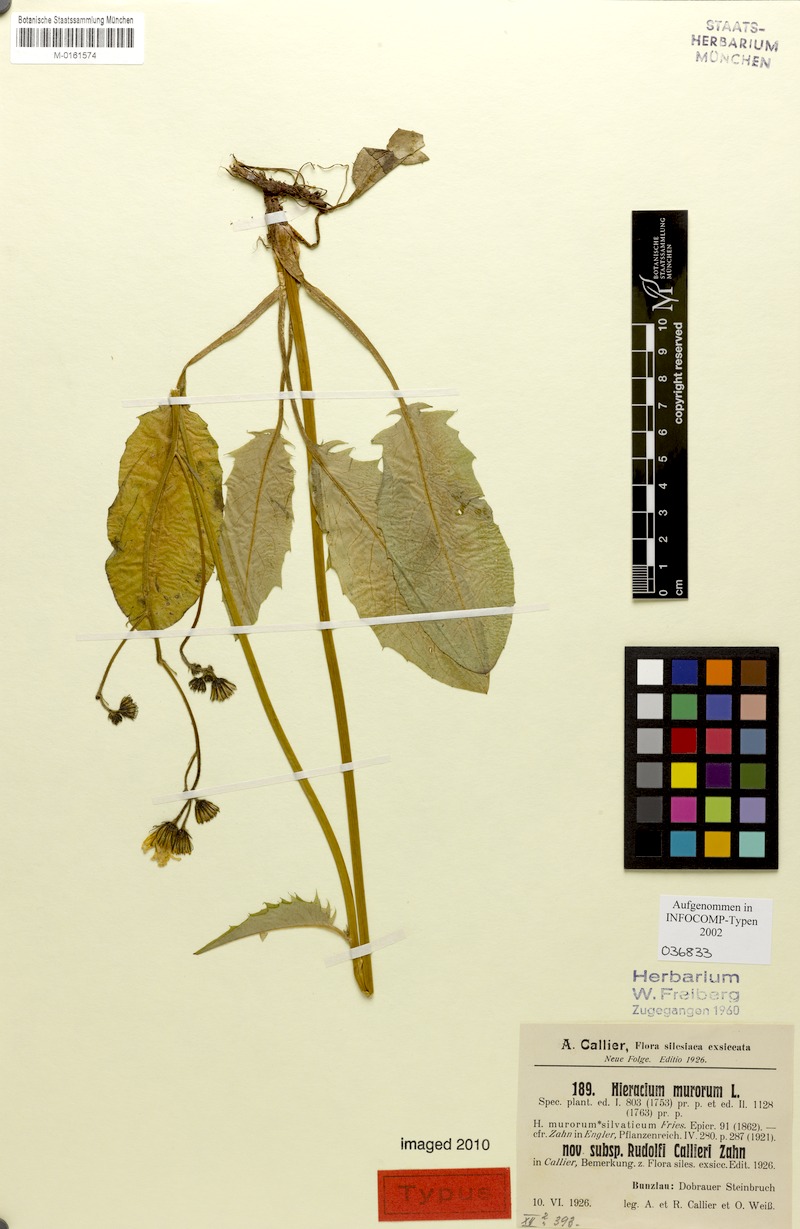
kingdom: Plantae
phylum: Tracheophyta
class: Magnoliopsida
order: Asterales
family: Asteraceae
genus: Hieracium
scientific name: Hieracium murorum
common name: Wall hawkweed
